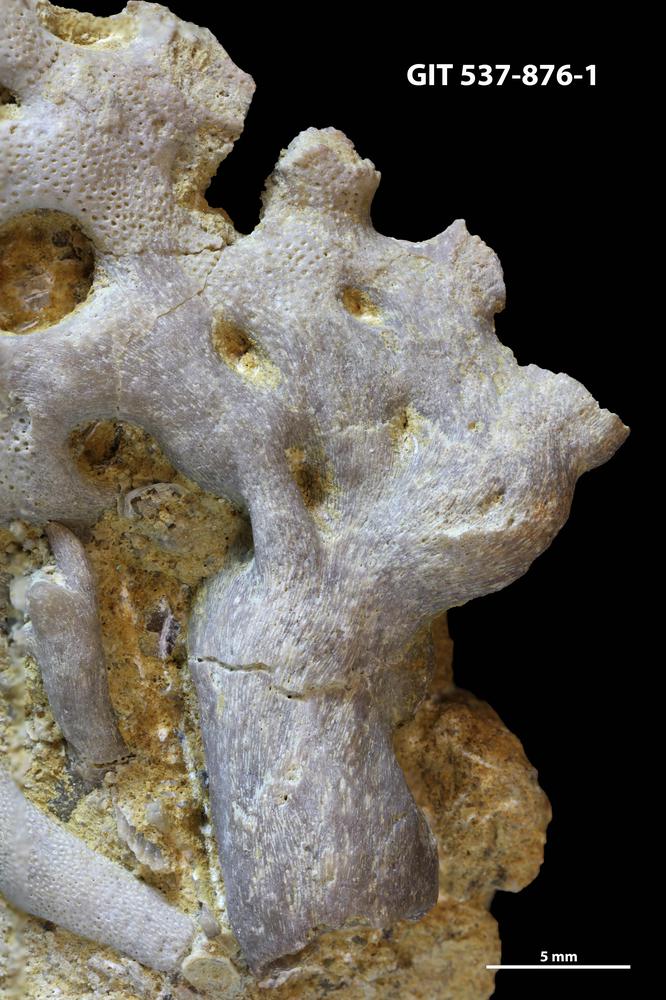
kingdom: Animalia
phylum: Bryozoa
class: Stenolaemata
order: Cryptostomida
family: Nematotrypidae
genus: Moyerella
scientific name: Moyerella francisca
